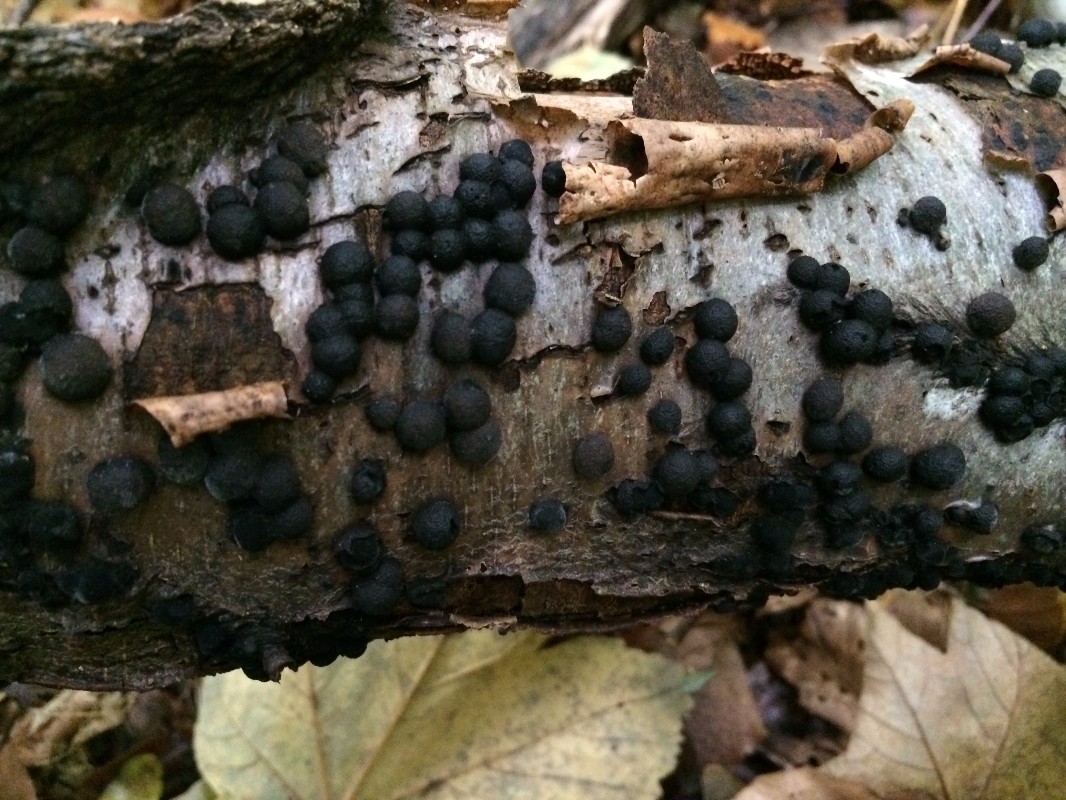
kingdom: Fungi
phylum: Ascomycota
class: Sordariomycetes
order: Xylariales
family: Hypoxylaceae
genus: Jackrogersella
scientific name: Jackrogersella multiformis
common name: foranderlig kulbær
